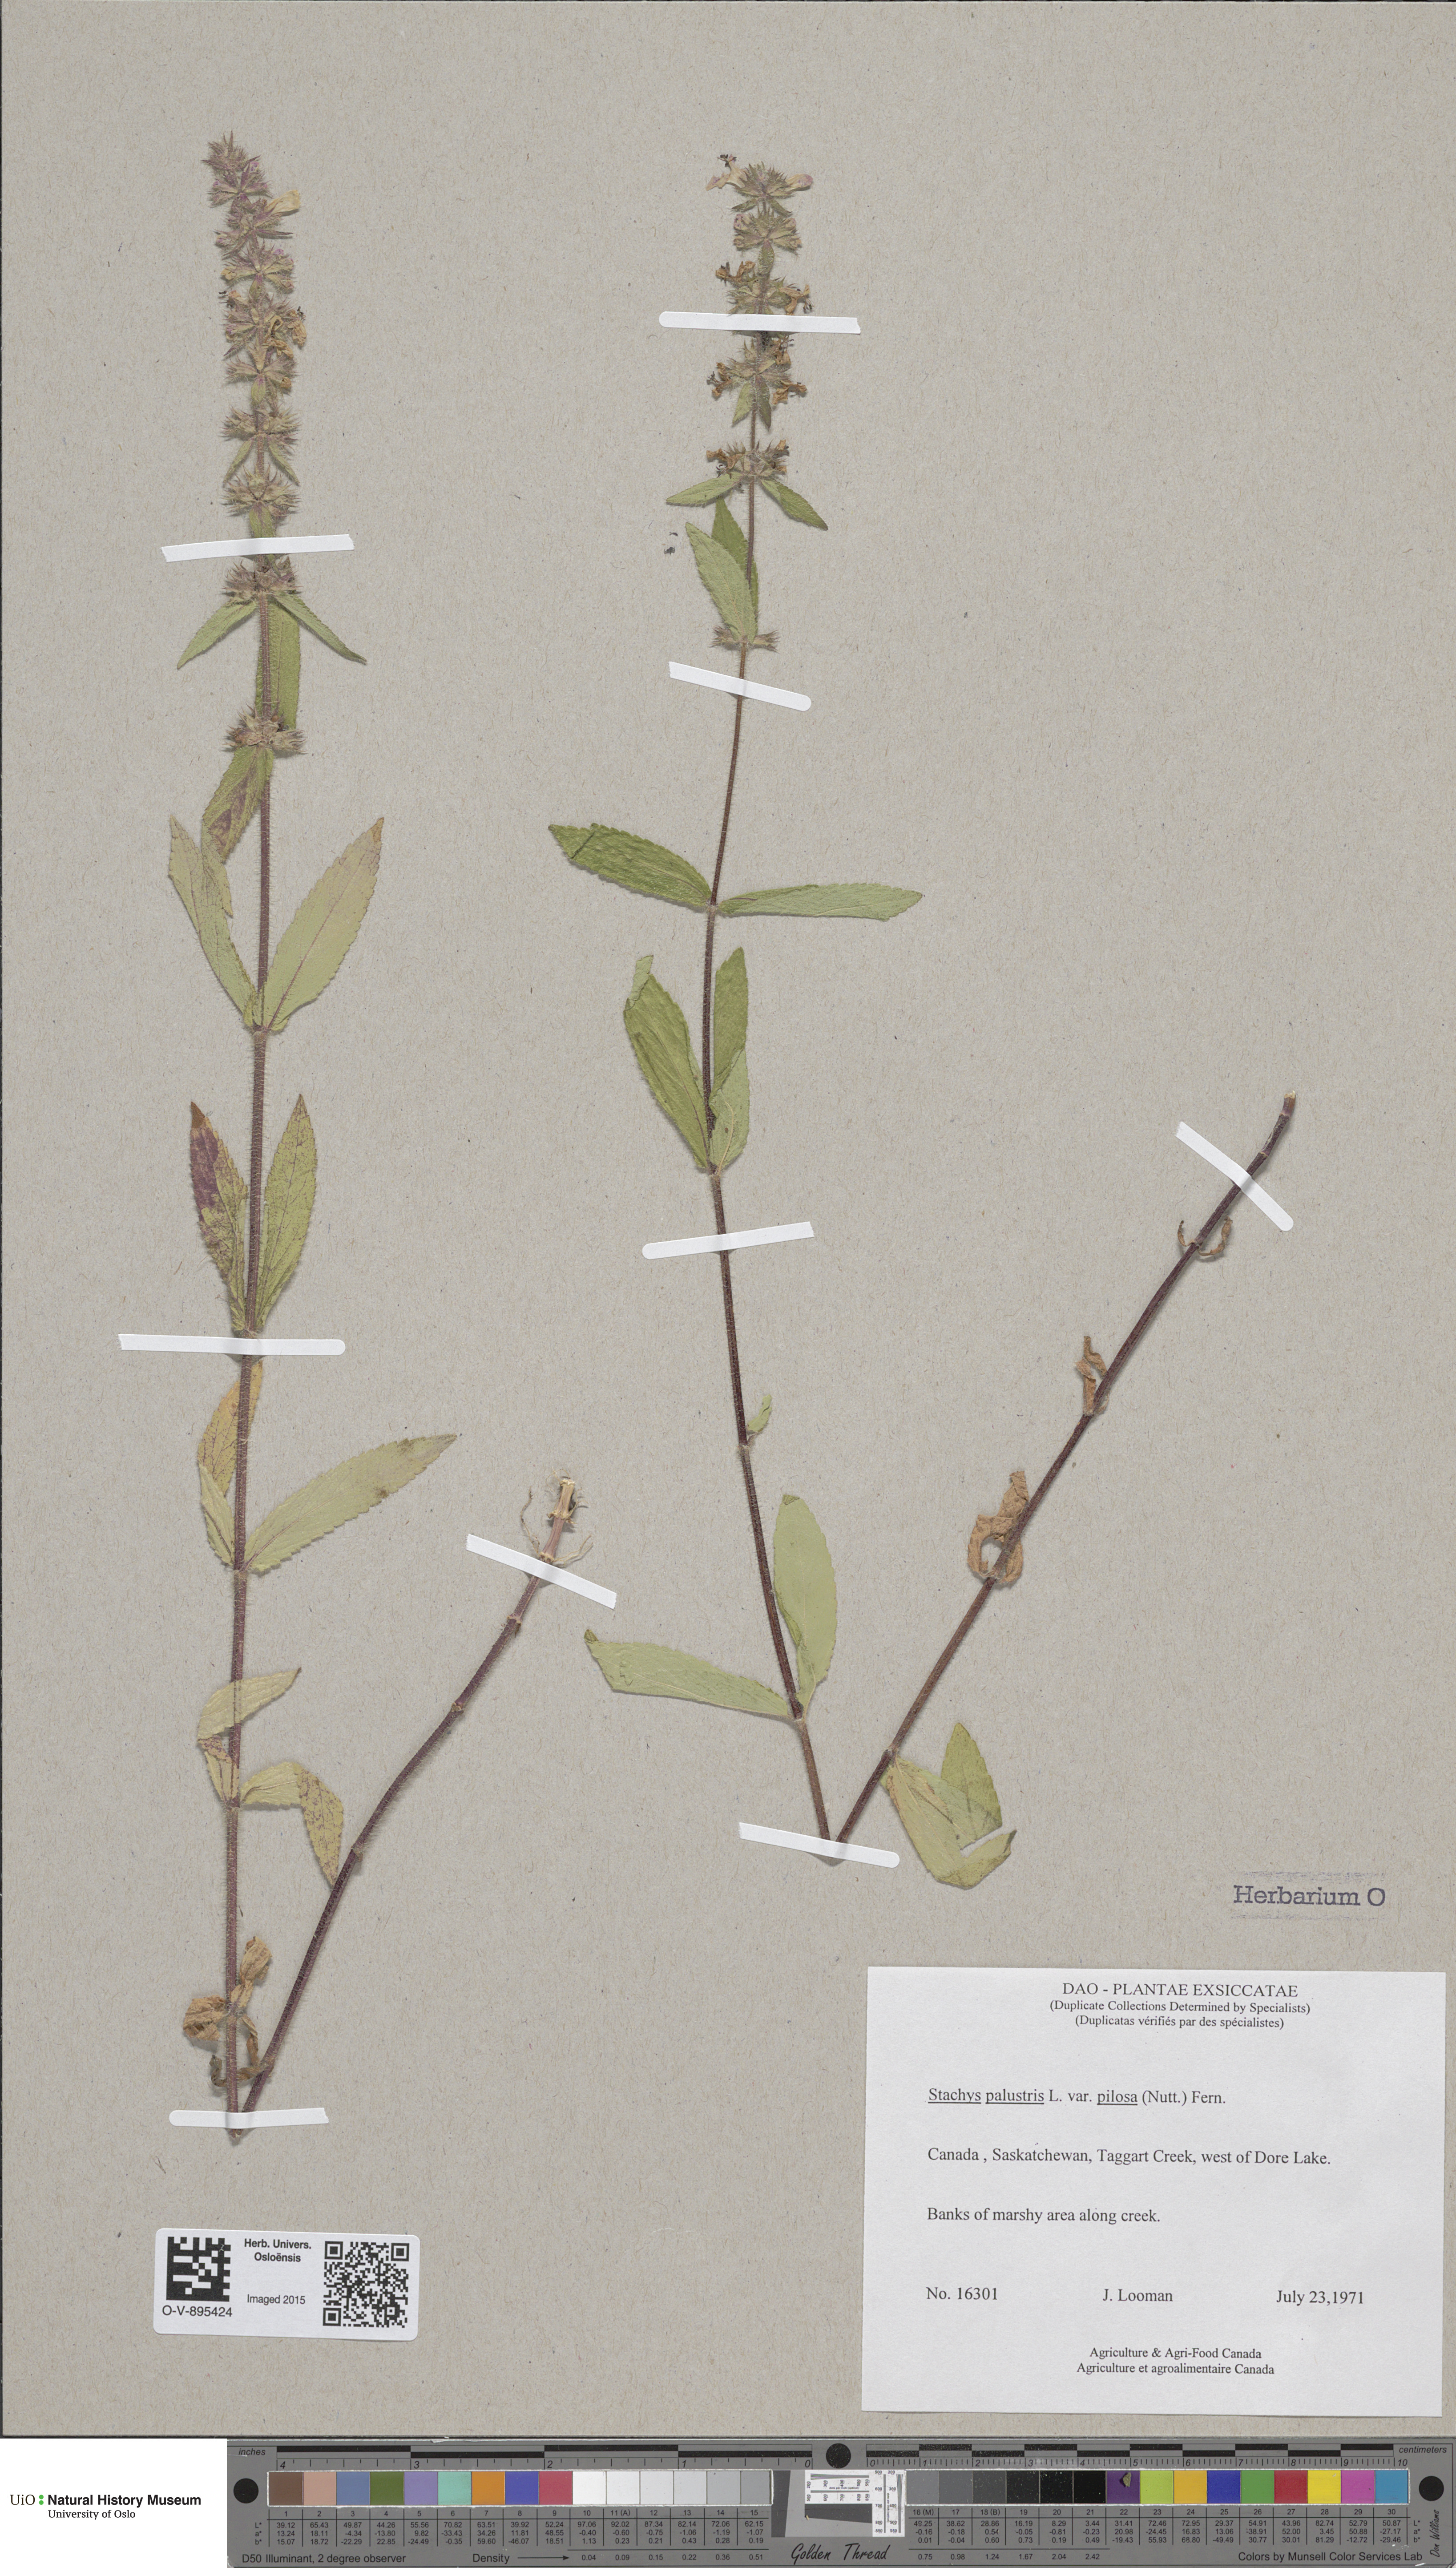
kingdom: Plantae
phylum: Tracheophyta
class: Magnoliopsida
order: Lamiales
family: Lamiaceae
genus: Stachys
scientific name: Stachys pilosa
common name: Hairy hedge-nettle
